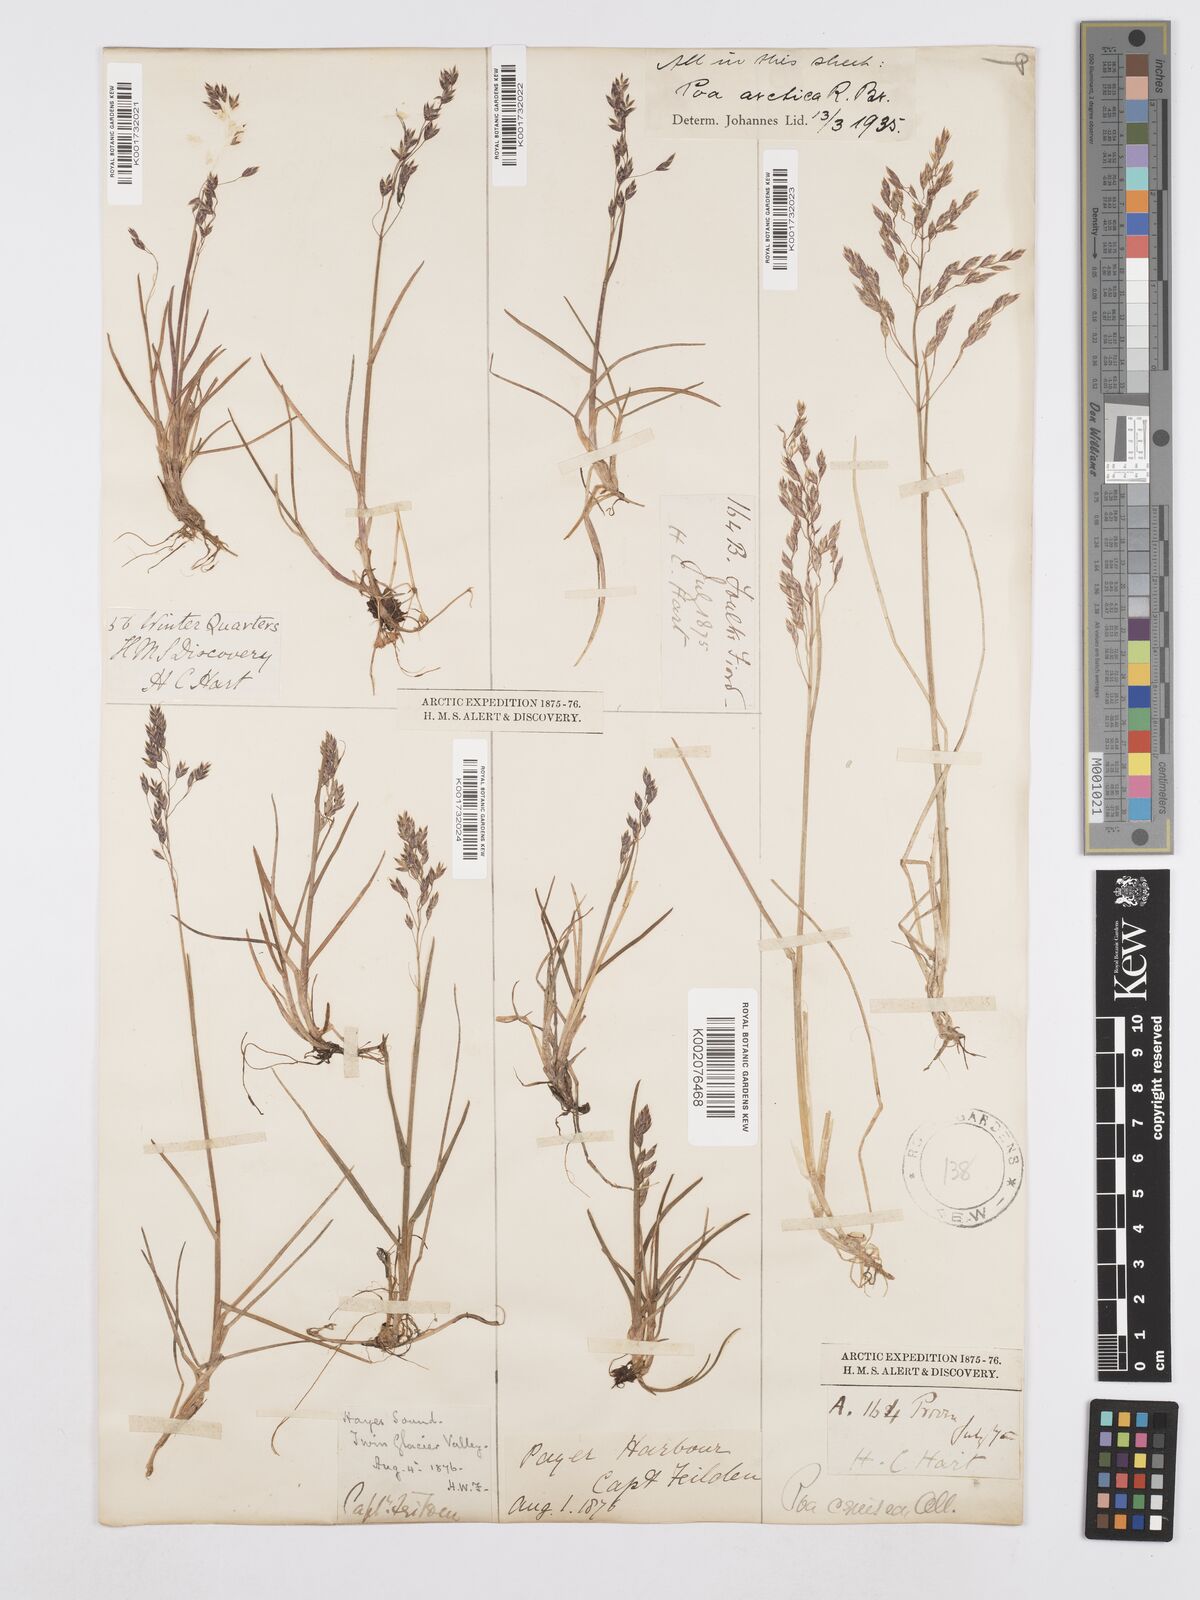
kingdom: Plantae
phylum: Tracheophyta
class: Liliopsida
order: Poales
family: Poaceae
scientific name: Poaceae
